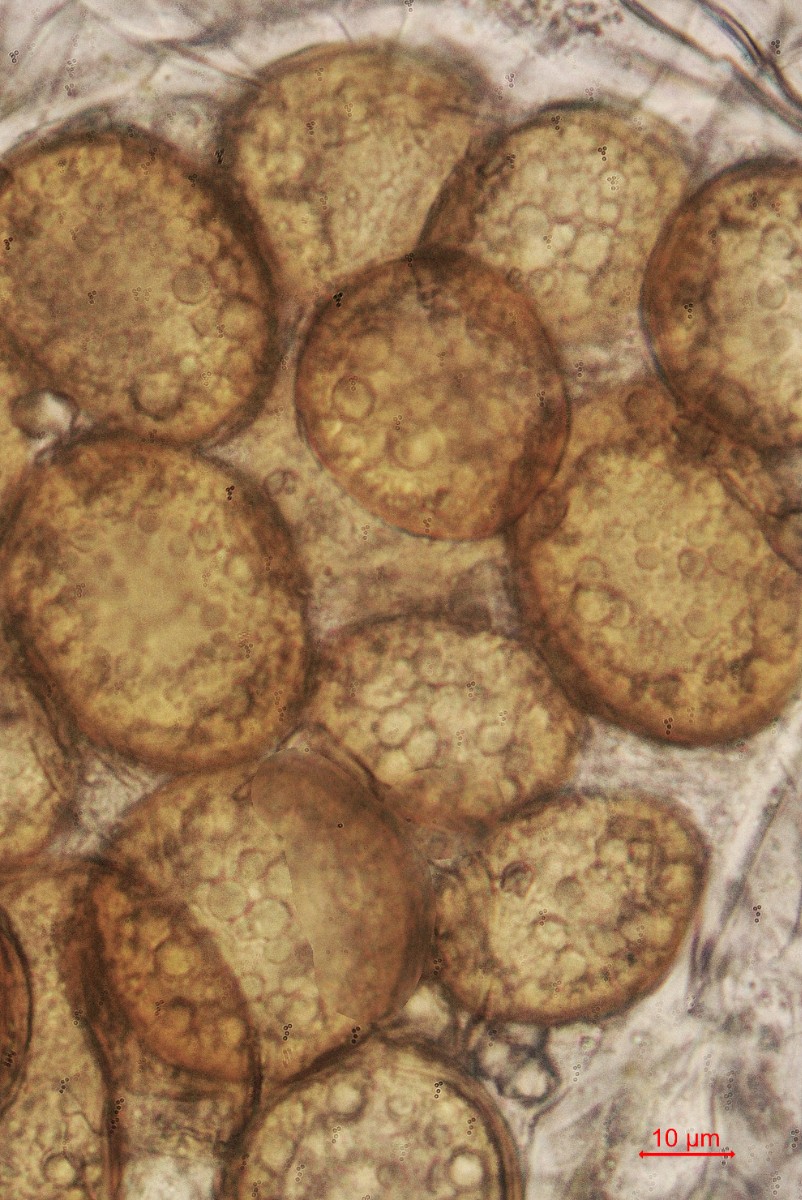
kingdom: Fungi
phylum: Blastocladiomycota
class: Blastocladiomycetes
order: Physodermatales
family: Physodermataceae
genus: Physoderma
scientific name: Physoderma pulposum
